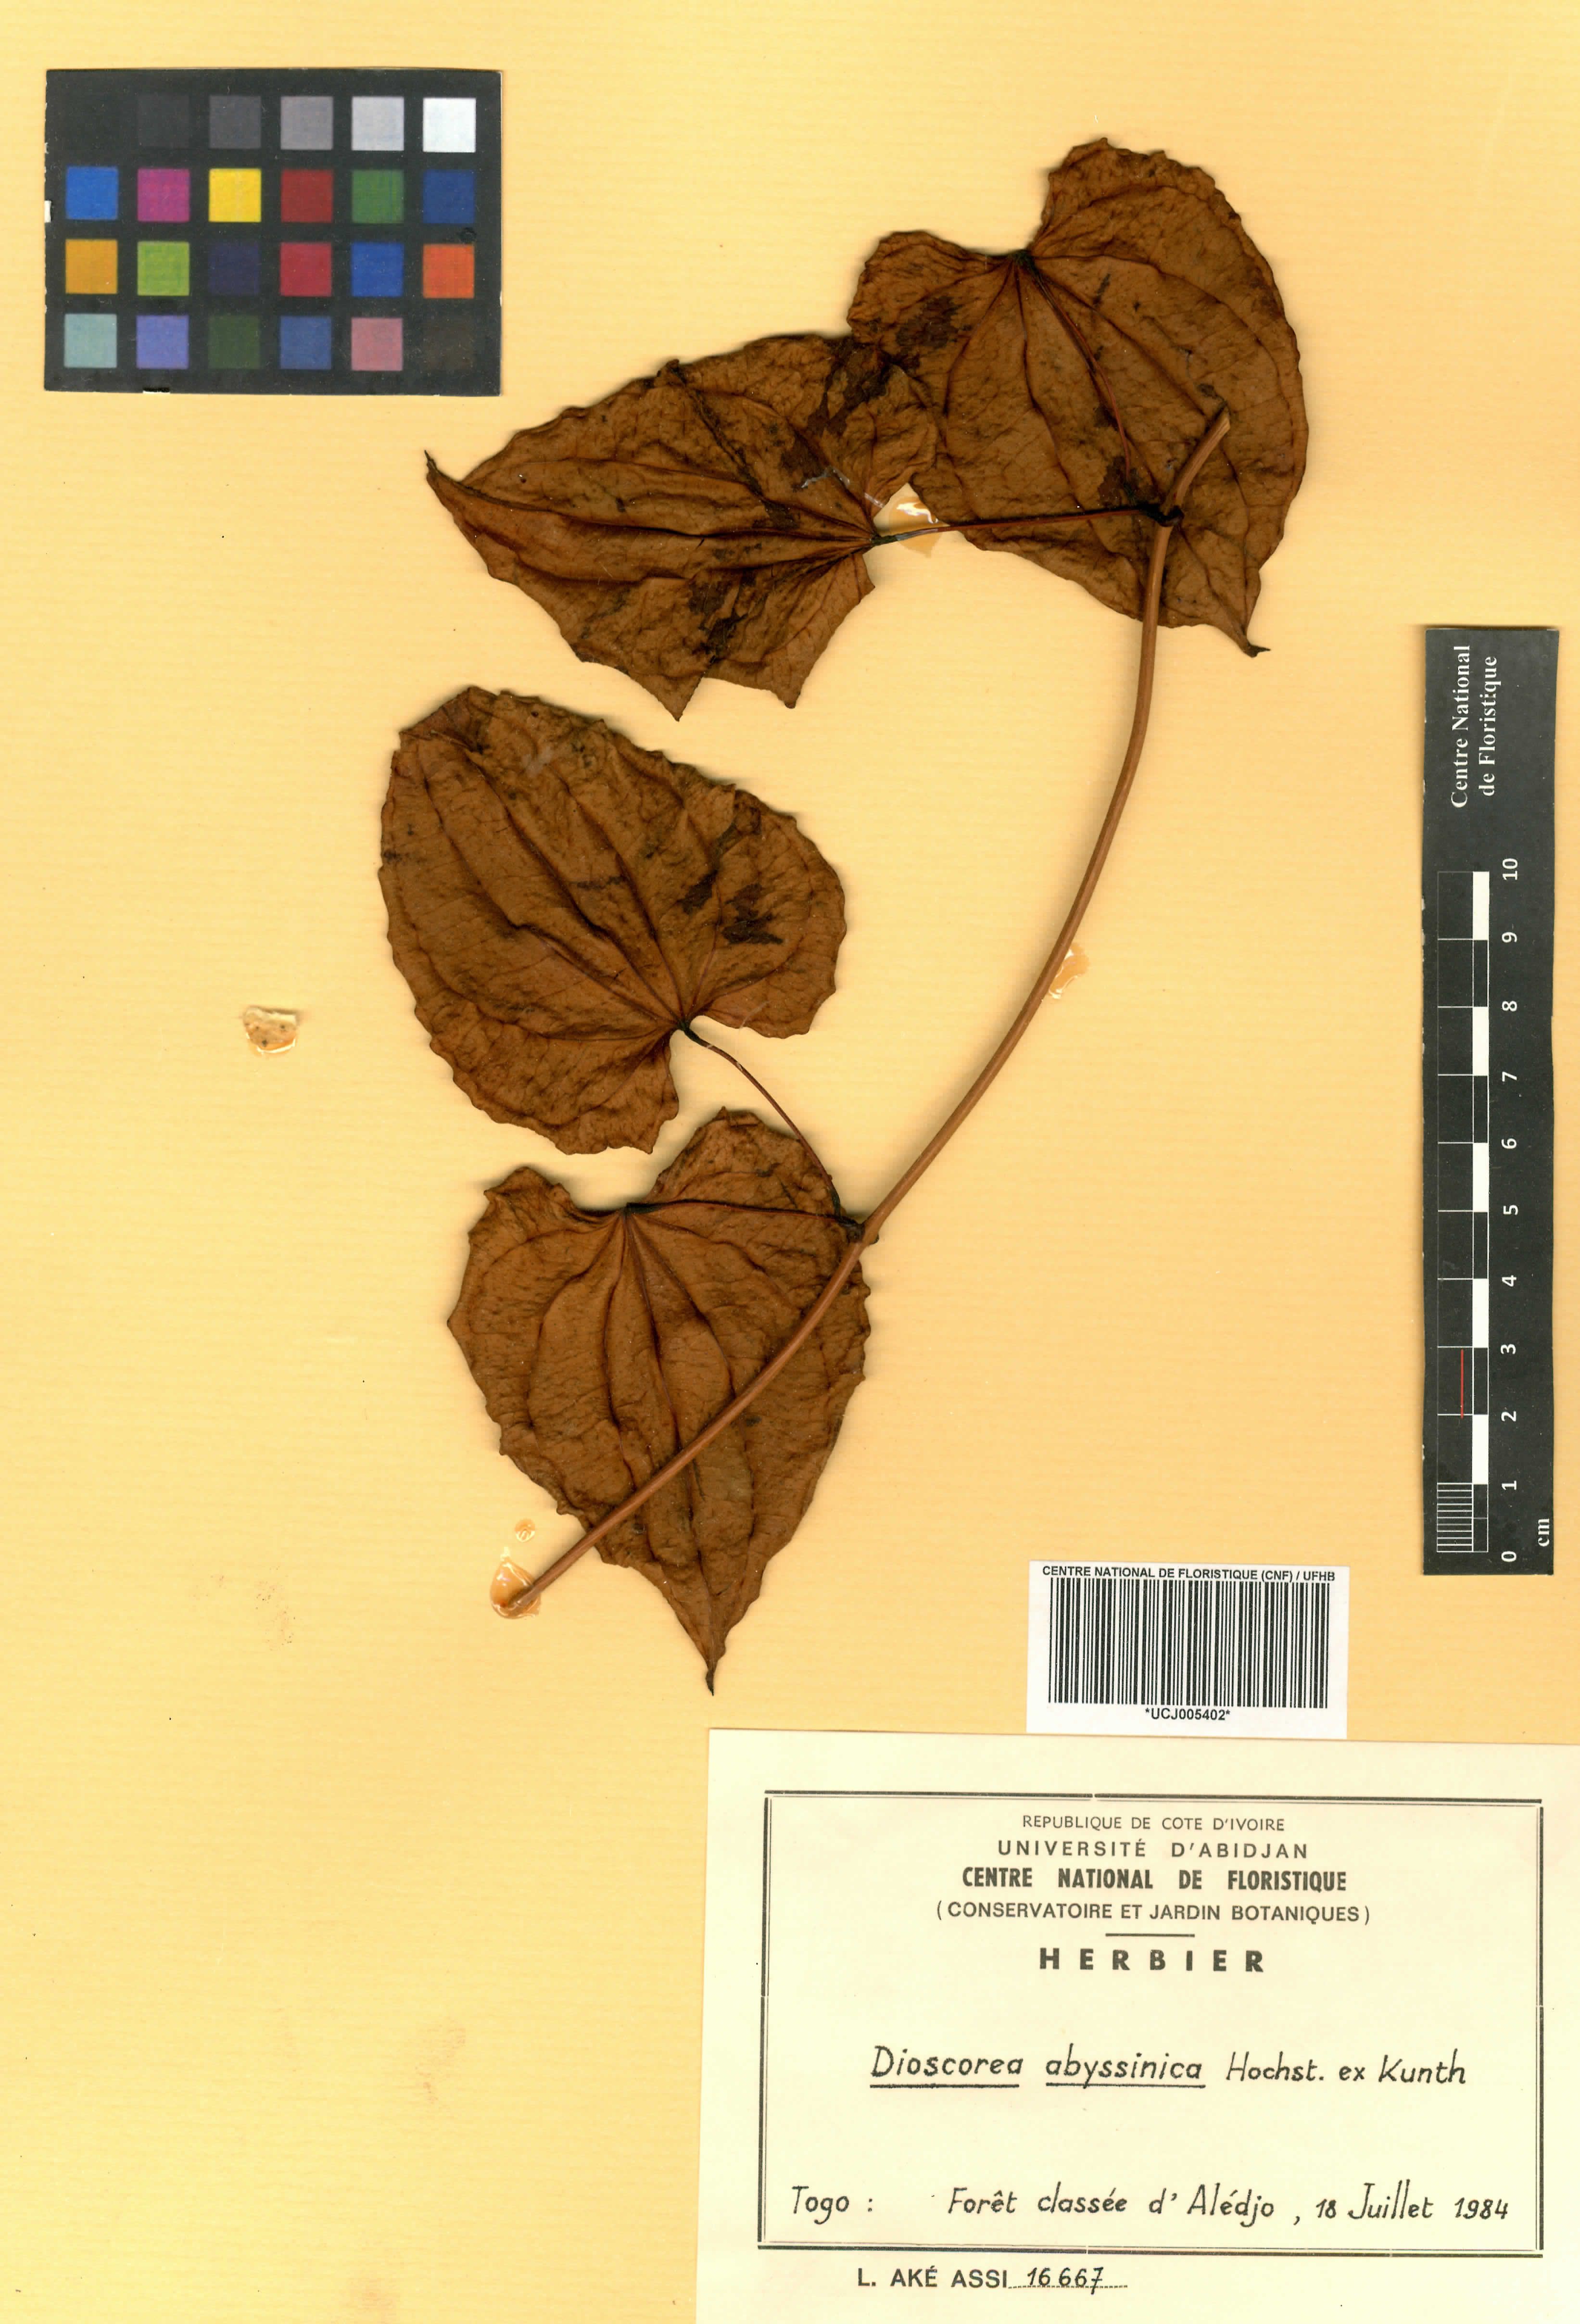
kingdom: Plantae
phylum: Tracheophyta
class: Liliopsida
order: Dioscoreales
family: Dioscoreaceae
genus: Dioscorea
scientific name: Dioscorea abyssinica
